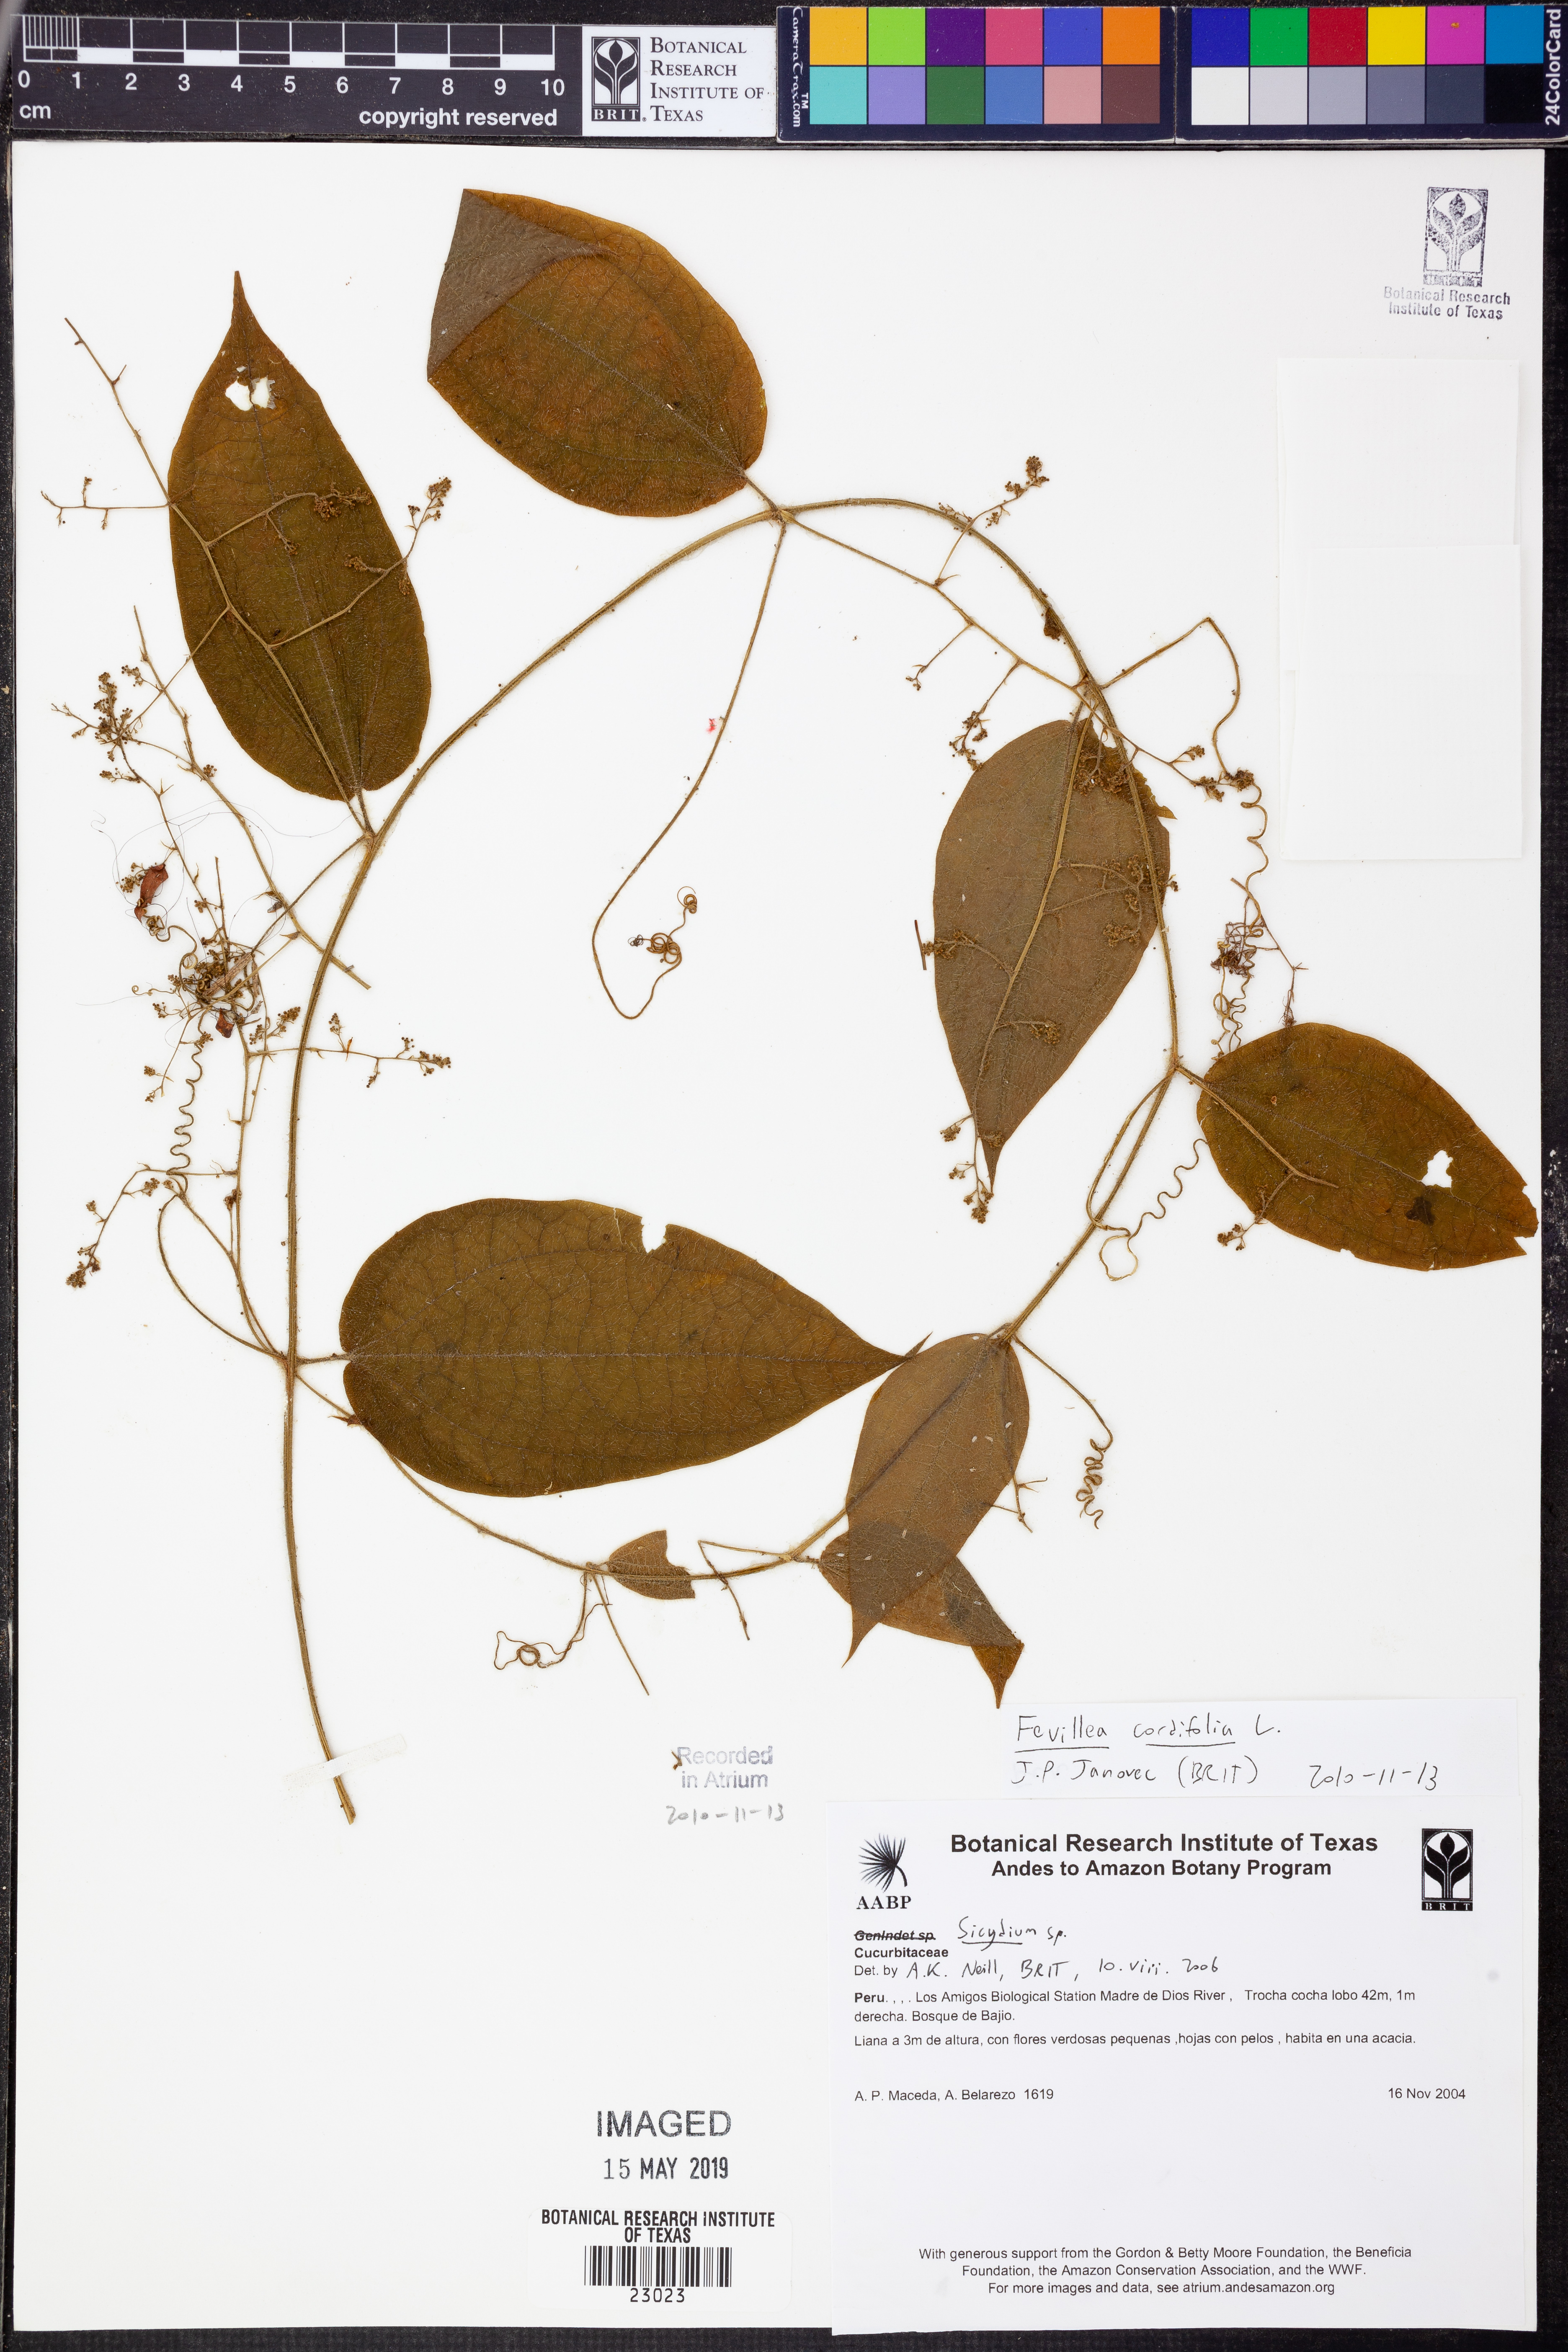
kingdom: Plantae
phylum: Tracheophyta
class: Magnoliopsida
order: Cucurbitales
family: Cucurbitaceae
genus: Fevillea
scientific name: Fevillea
